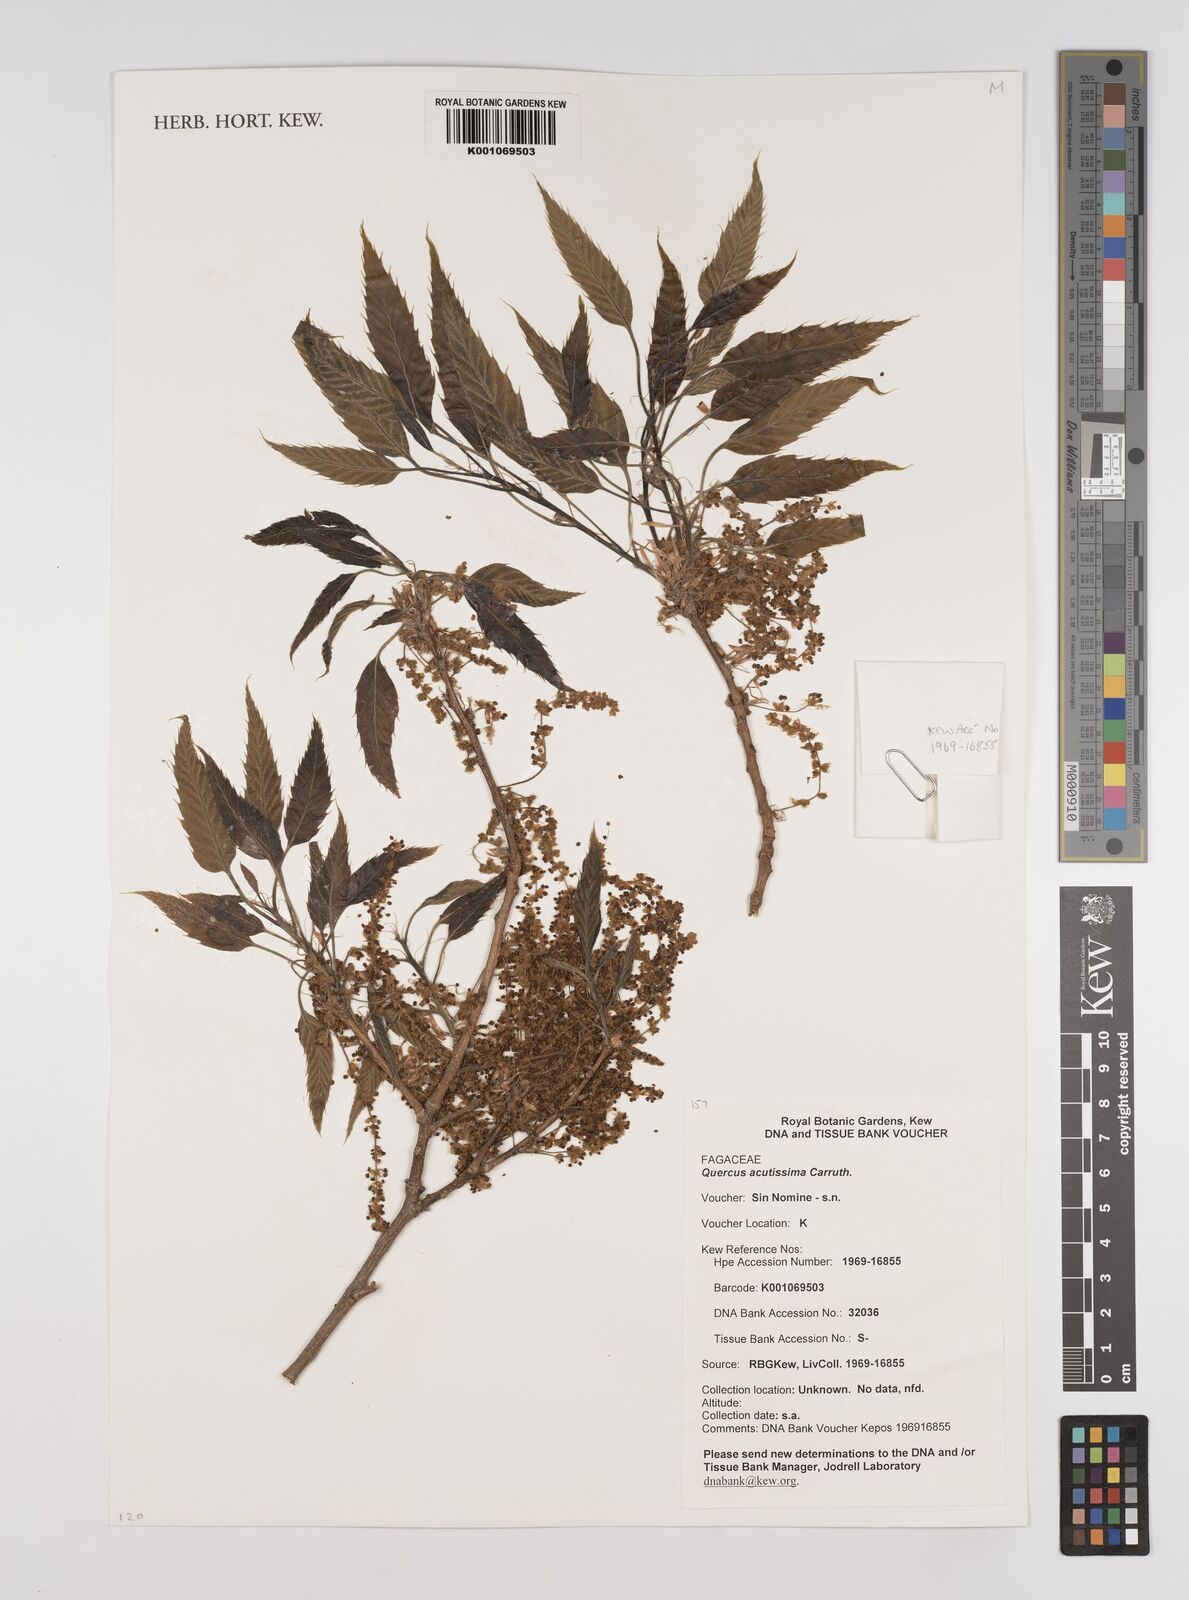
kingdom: Plantae
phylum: Tracheophyta
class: Magnoliopsida
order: Fagales
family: Fagaceae
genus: Quercus
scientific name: Quercus acutissima
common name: Sawtooth oak
